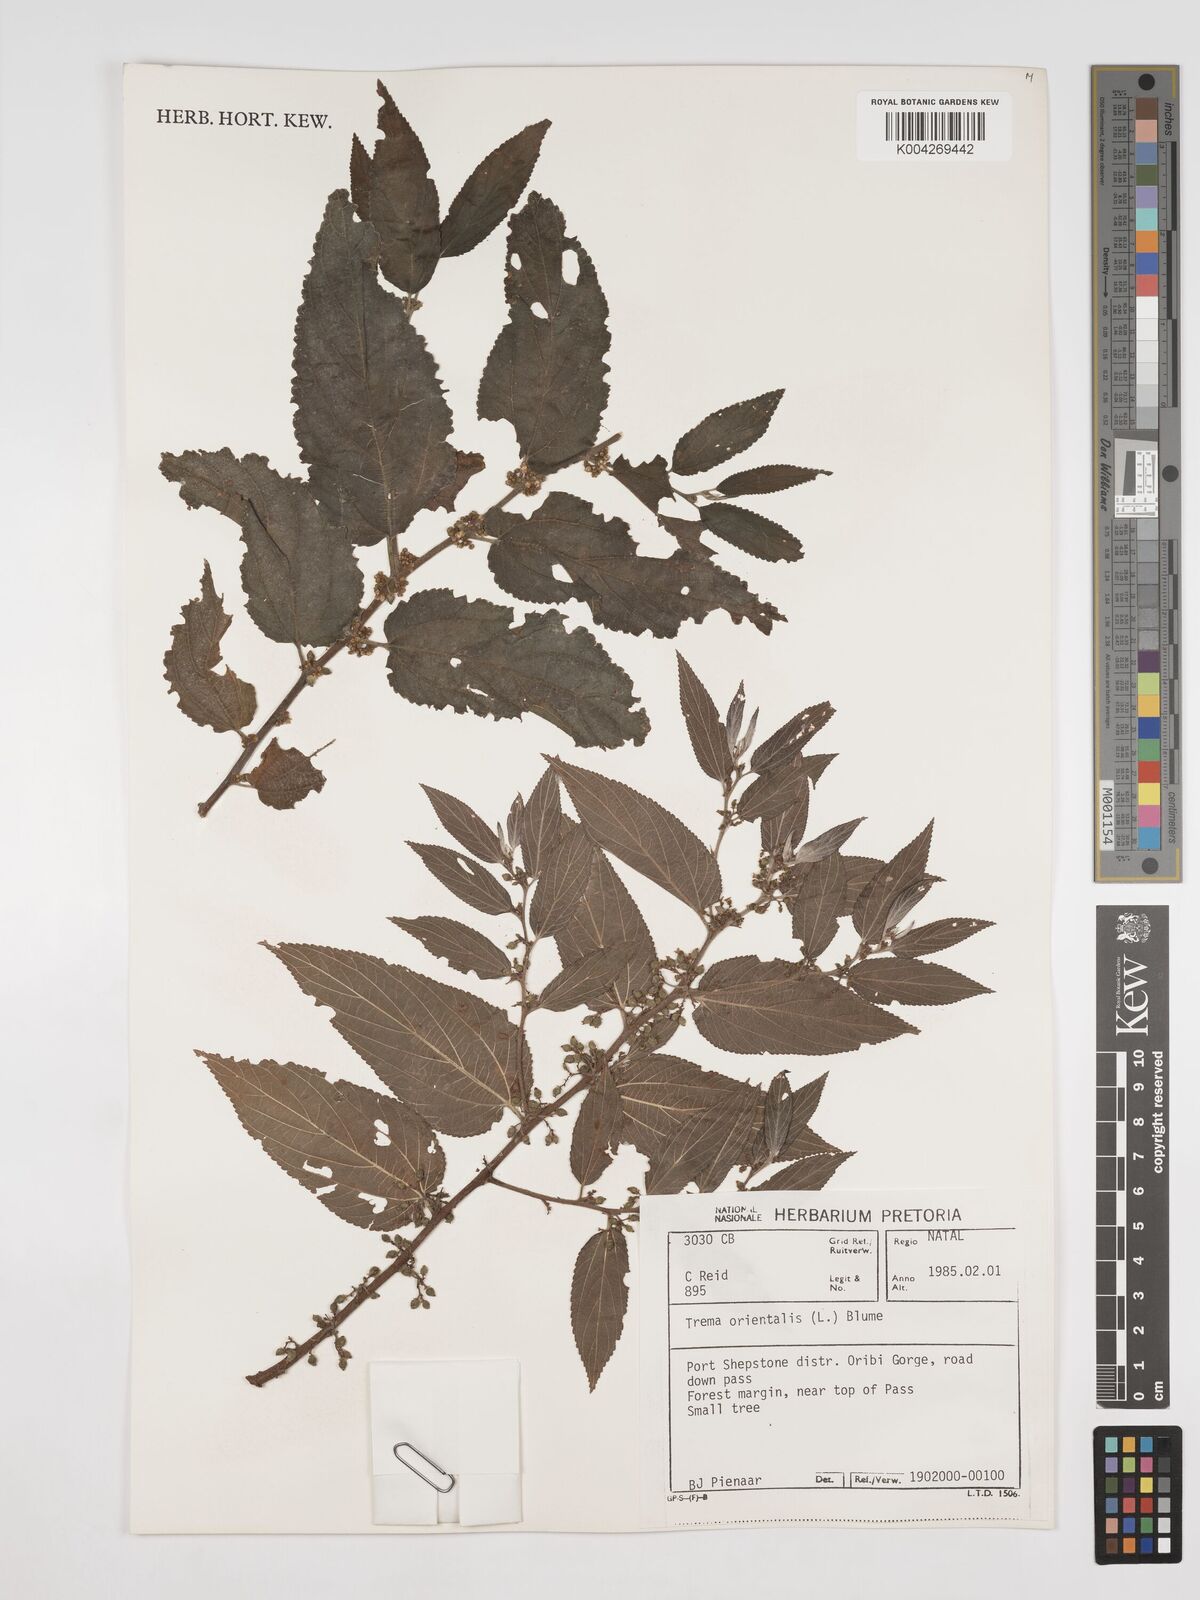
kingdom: Plantae
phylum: Tracheophyta
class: Magnoliopsida
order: Rosales
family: Cannabaceae
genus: Trema
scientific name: Trema orientale
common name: Indian charcoal tree
